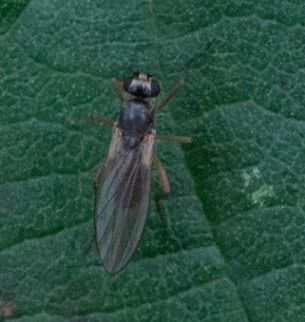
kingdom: Animalia
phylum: Arthropoda
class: Insecta
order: Diptera
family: Lonchopteridae
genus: Lonchoptera
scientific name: Lonchoptera
